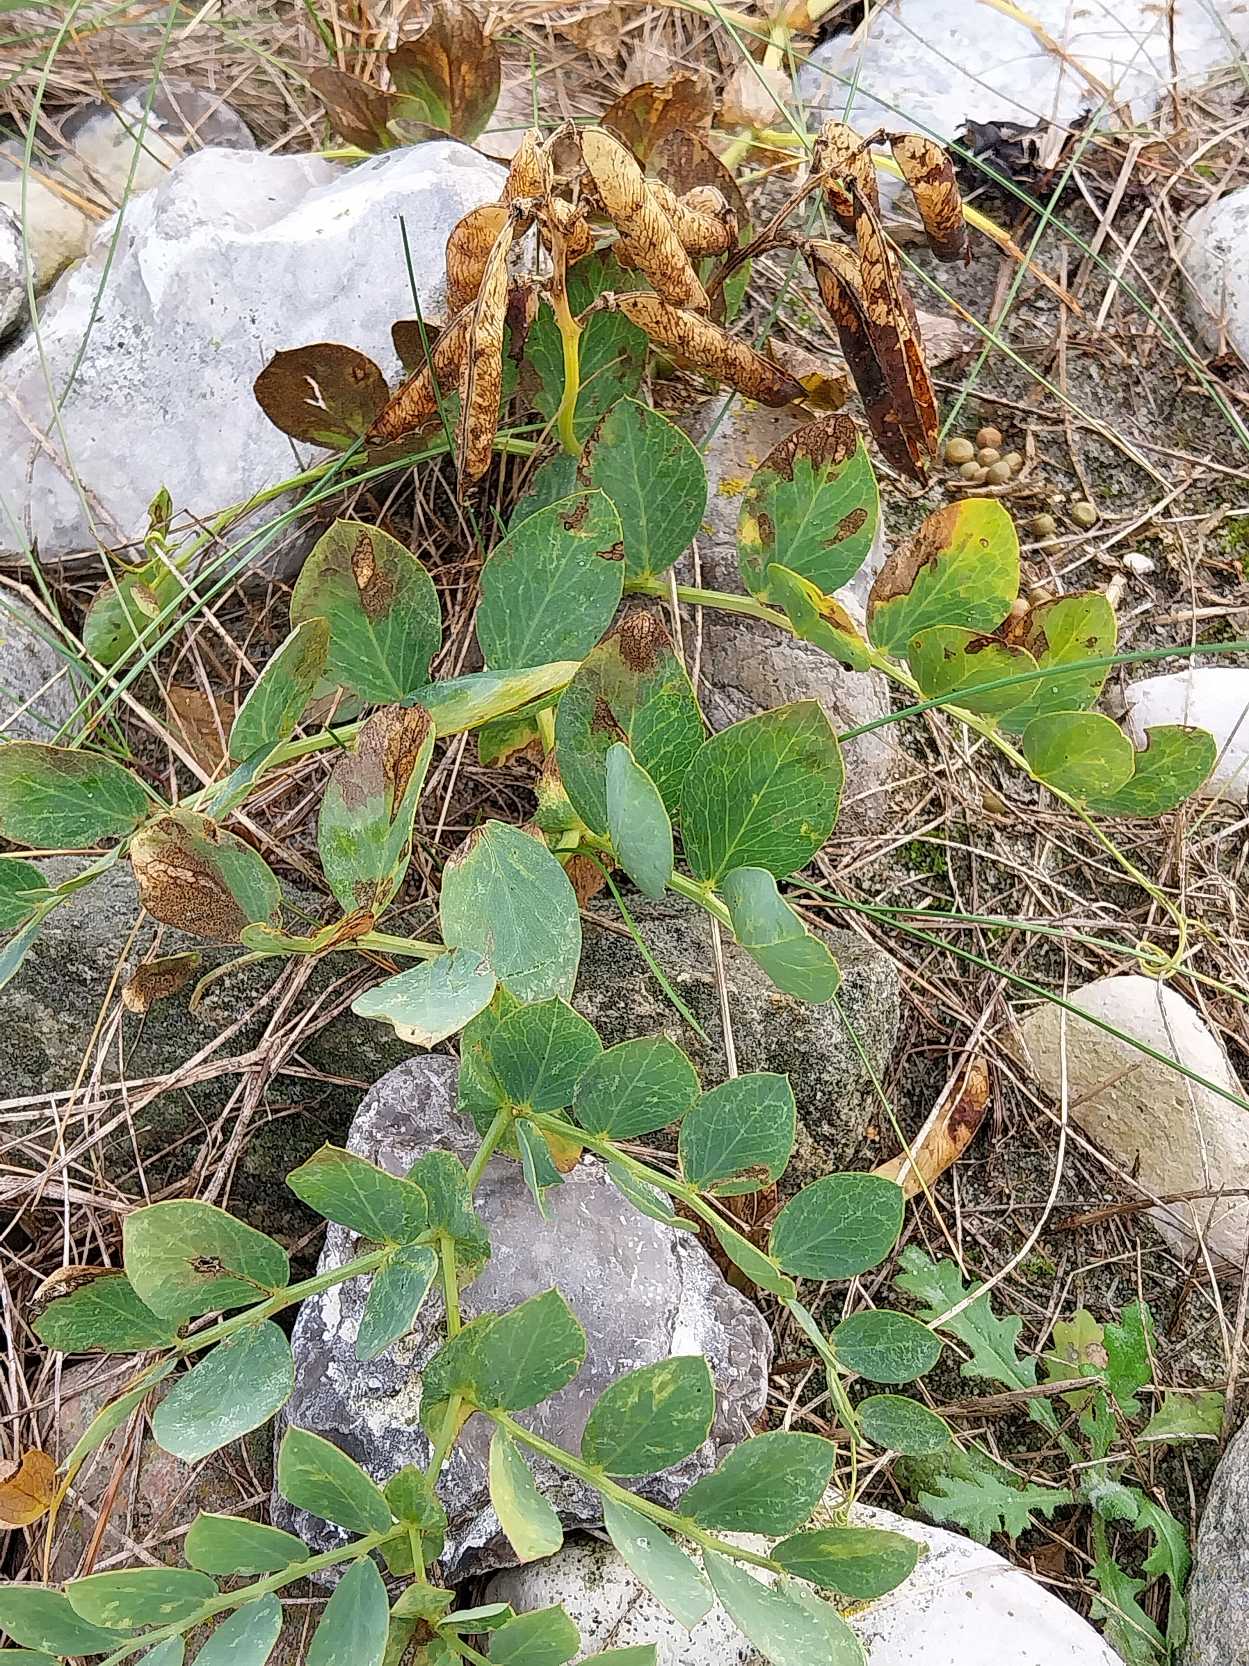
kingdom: Plantae
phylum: Tracheophyta
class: Magnoliopsida
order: Fabales
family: Fabaceae
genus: Lathyrus
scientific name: Lathyrus japonicus
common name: Strand-fladbælg
